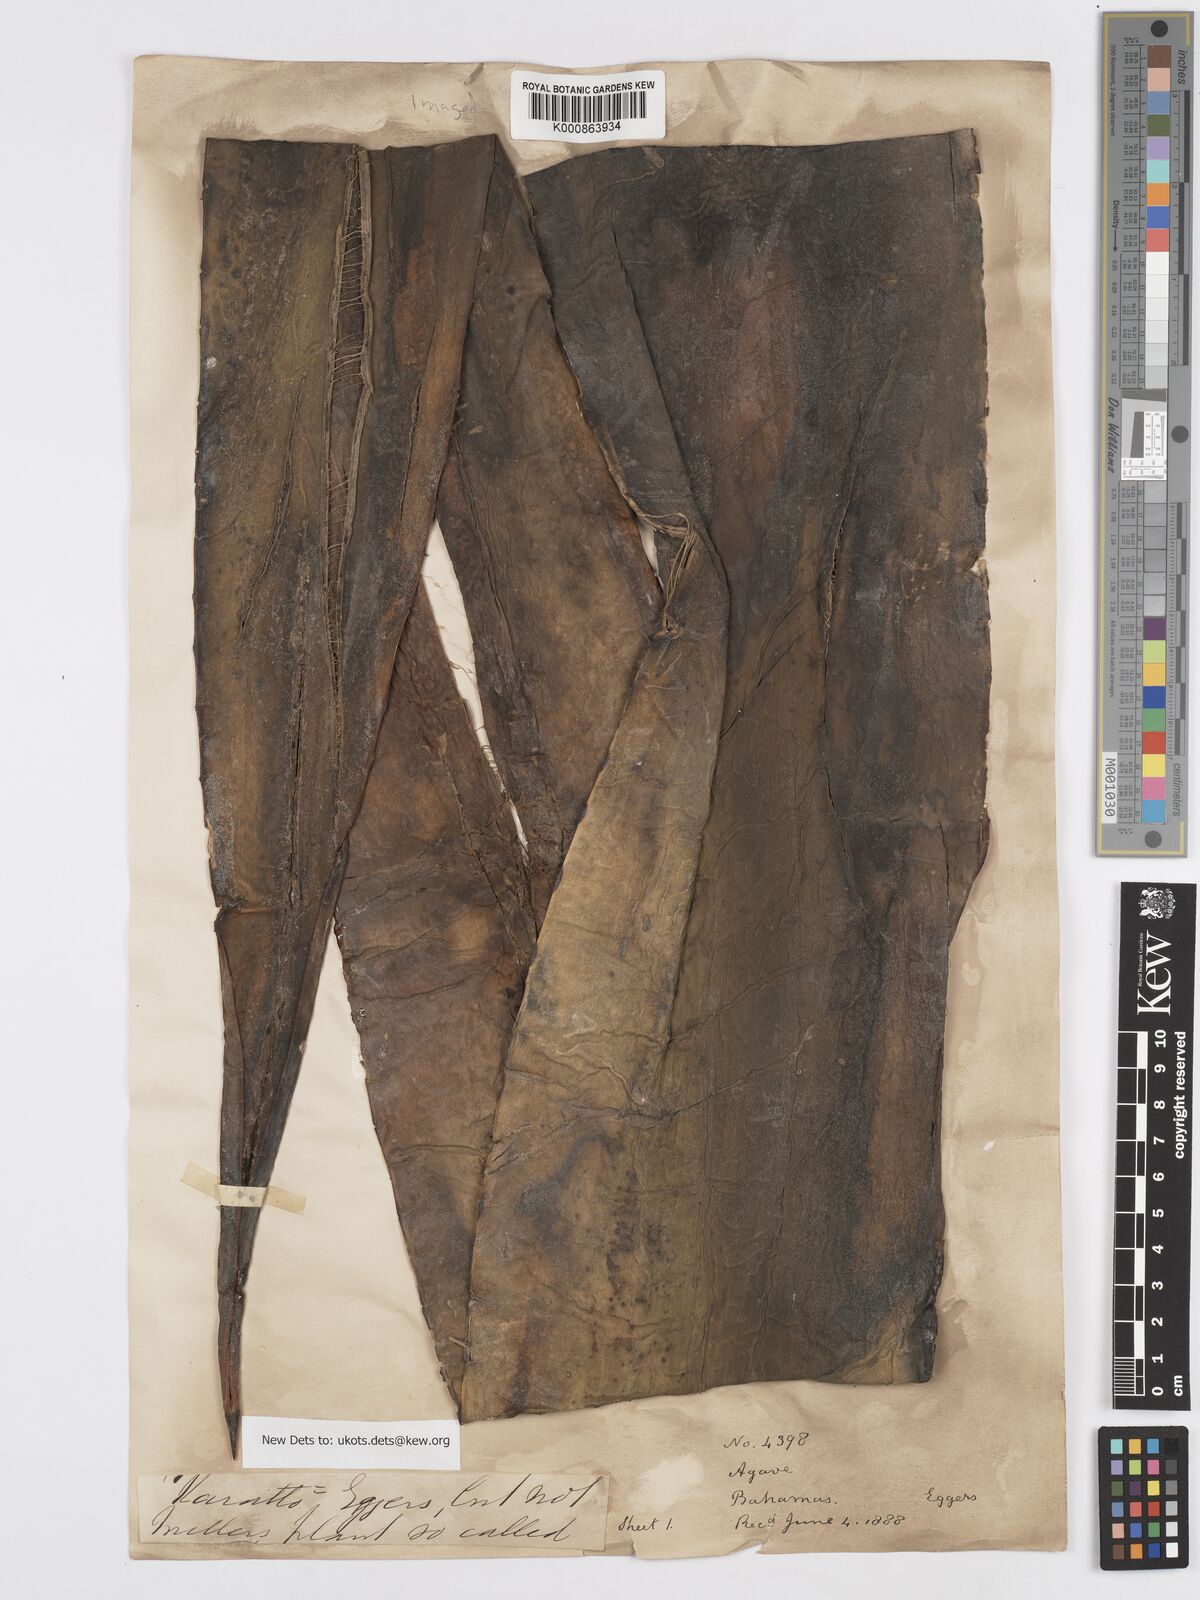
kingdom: Plantae
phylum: Tracheophyta
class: Liliopsida
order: Asparagales
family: Asparagaceae
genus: Agave
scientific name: Agave bahamana
